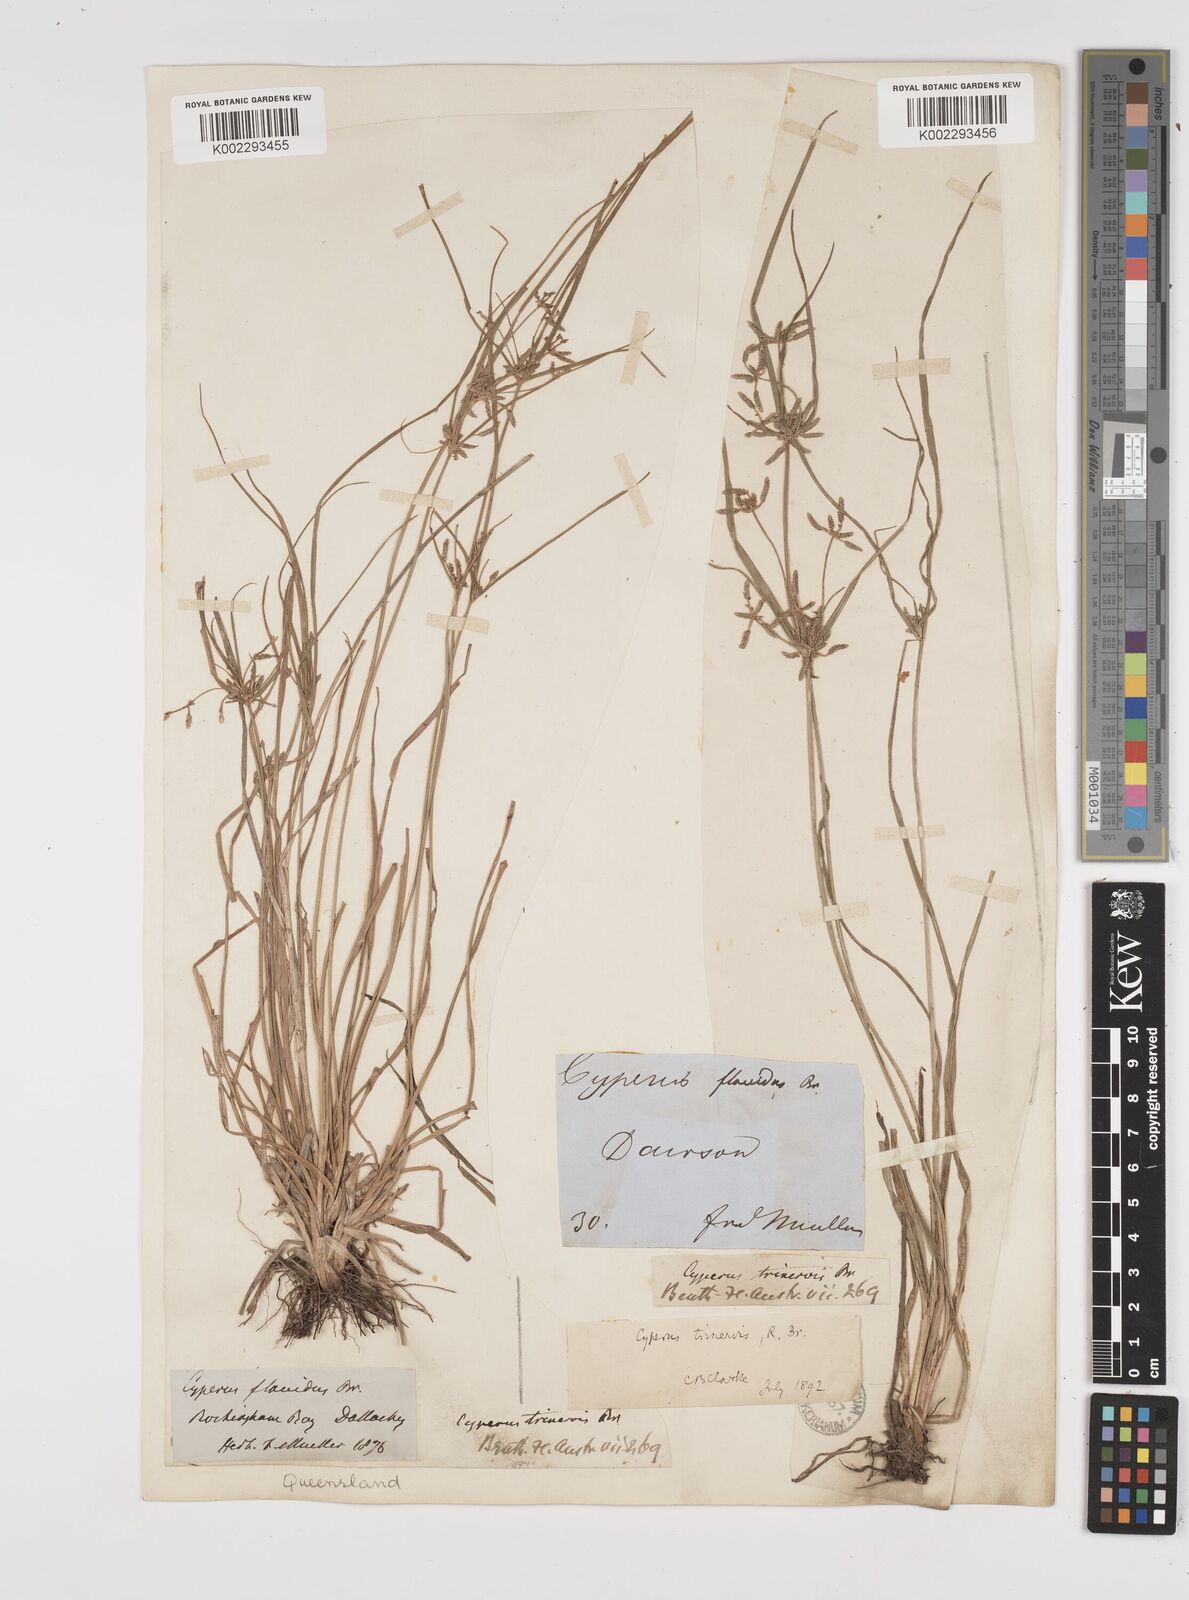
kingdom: Plantae
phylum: Tracheophyta
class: Liliopsida
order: Poales
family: Cyperaceae
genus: Cyperus
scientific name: Cyperus trinervis
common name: Australian flatsedge
